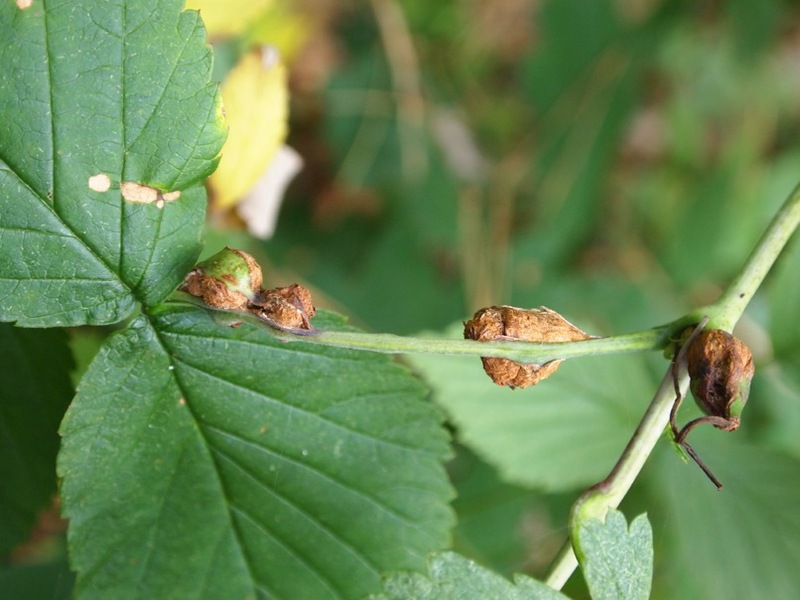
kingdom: Animalia
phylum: Arthropoda
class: Insecta
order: Diptera
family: Cecidomyiidae
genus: Lasioptera
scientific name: Lasioptera rubi
